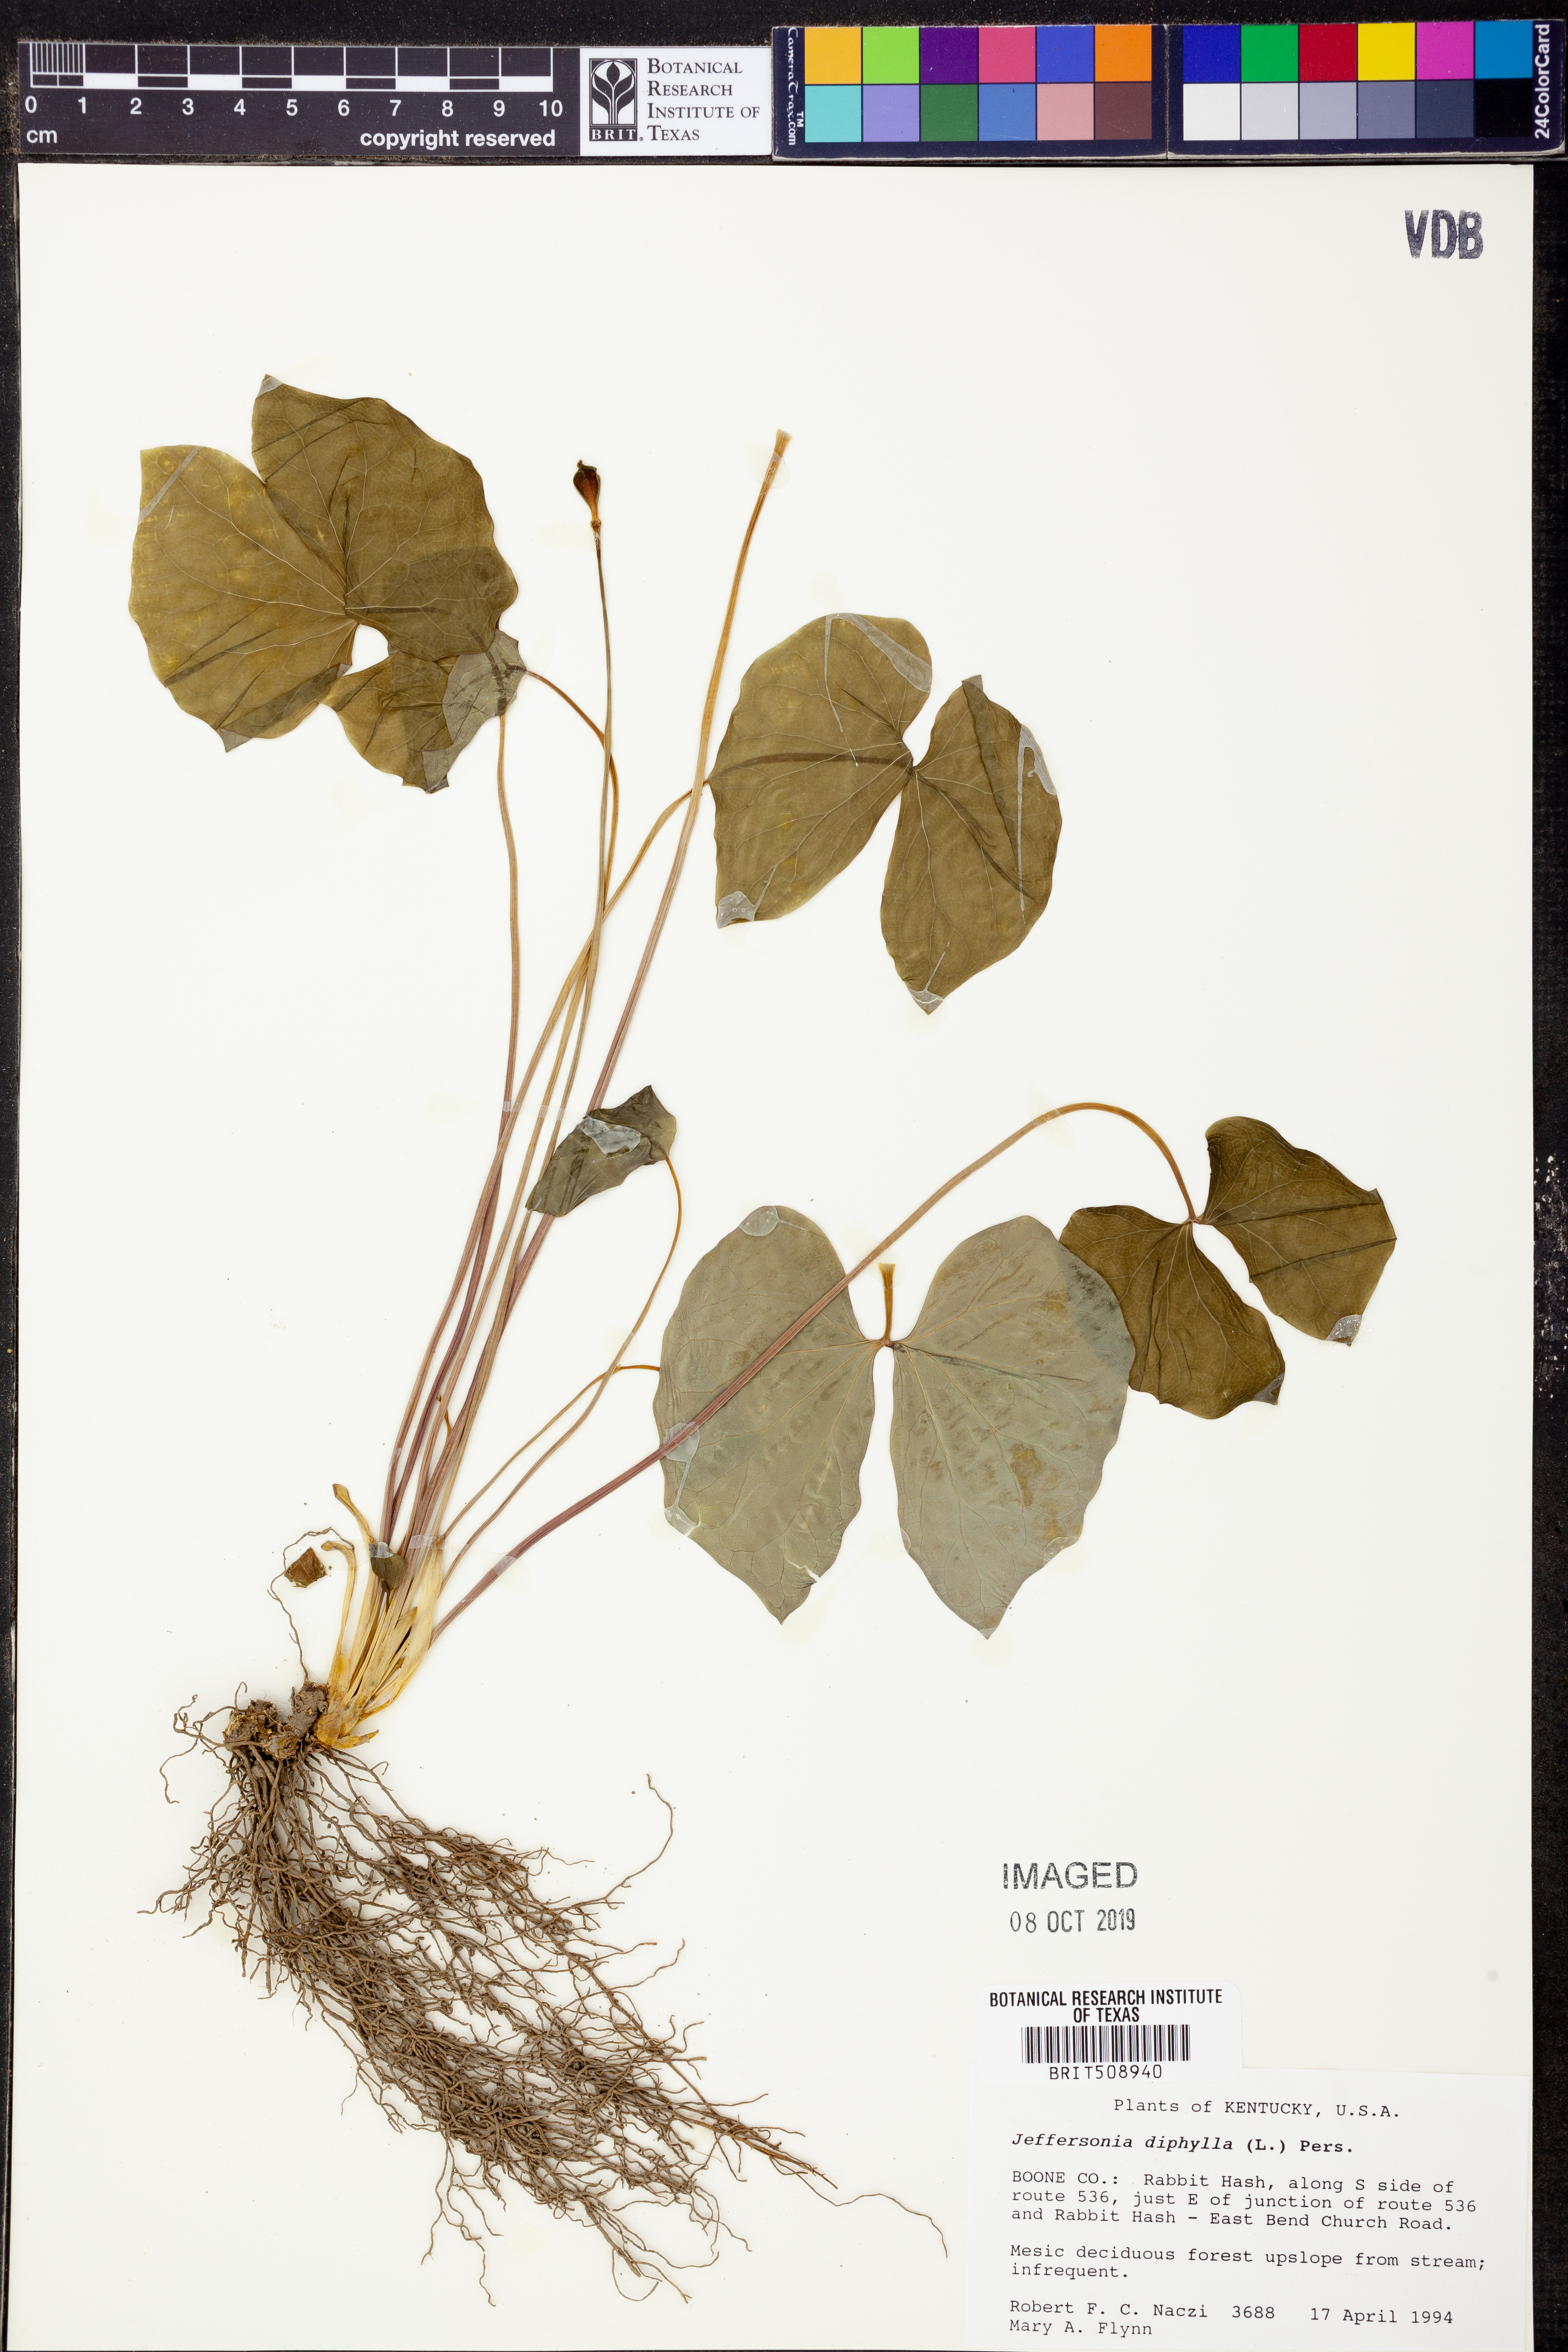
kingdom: Plantae
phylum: Tracheophyta
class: Magnoliopsida
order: Ranunculales
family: Berberidaceae
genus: Jeffersonia
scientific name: Jeffersonia diphylla
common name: Rheumatism-root
